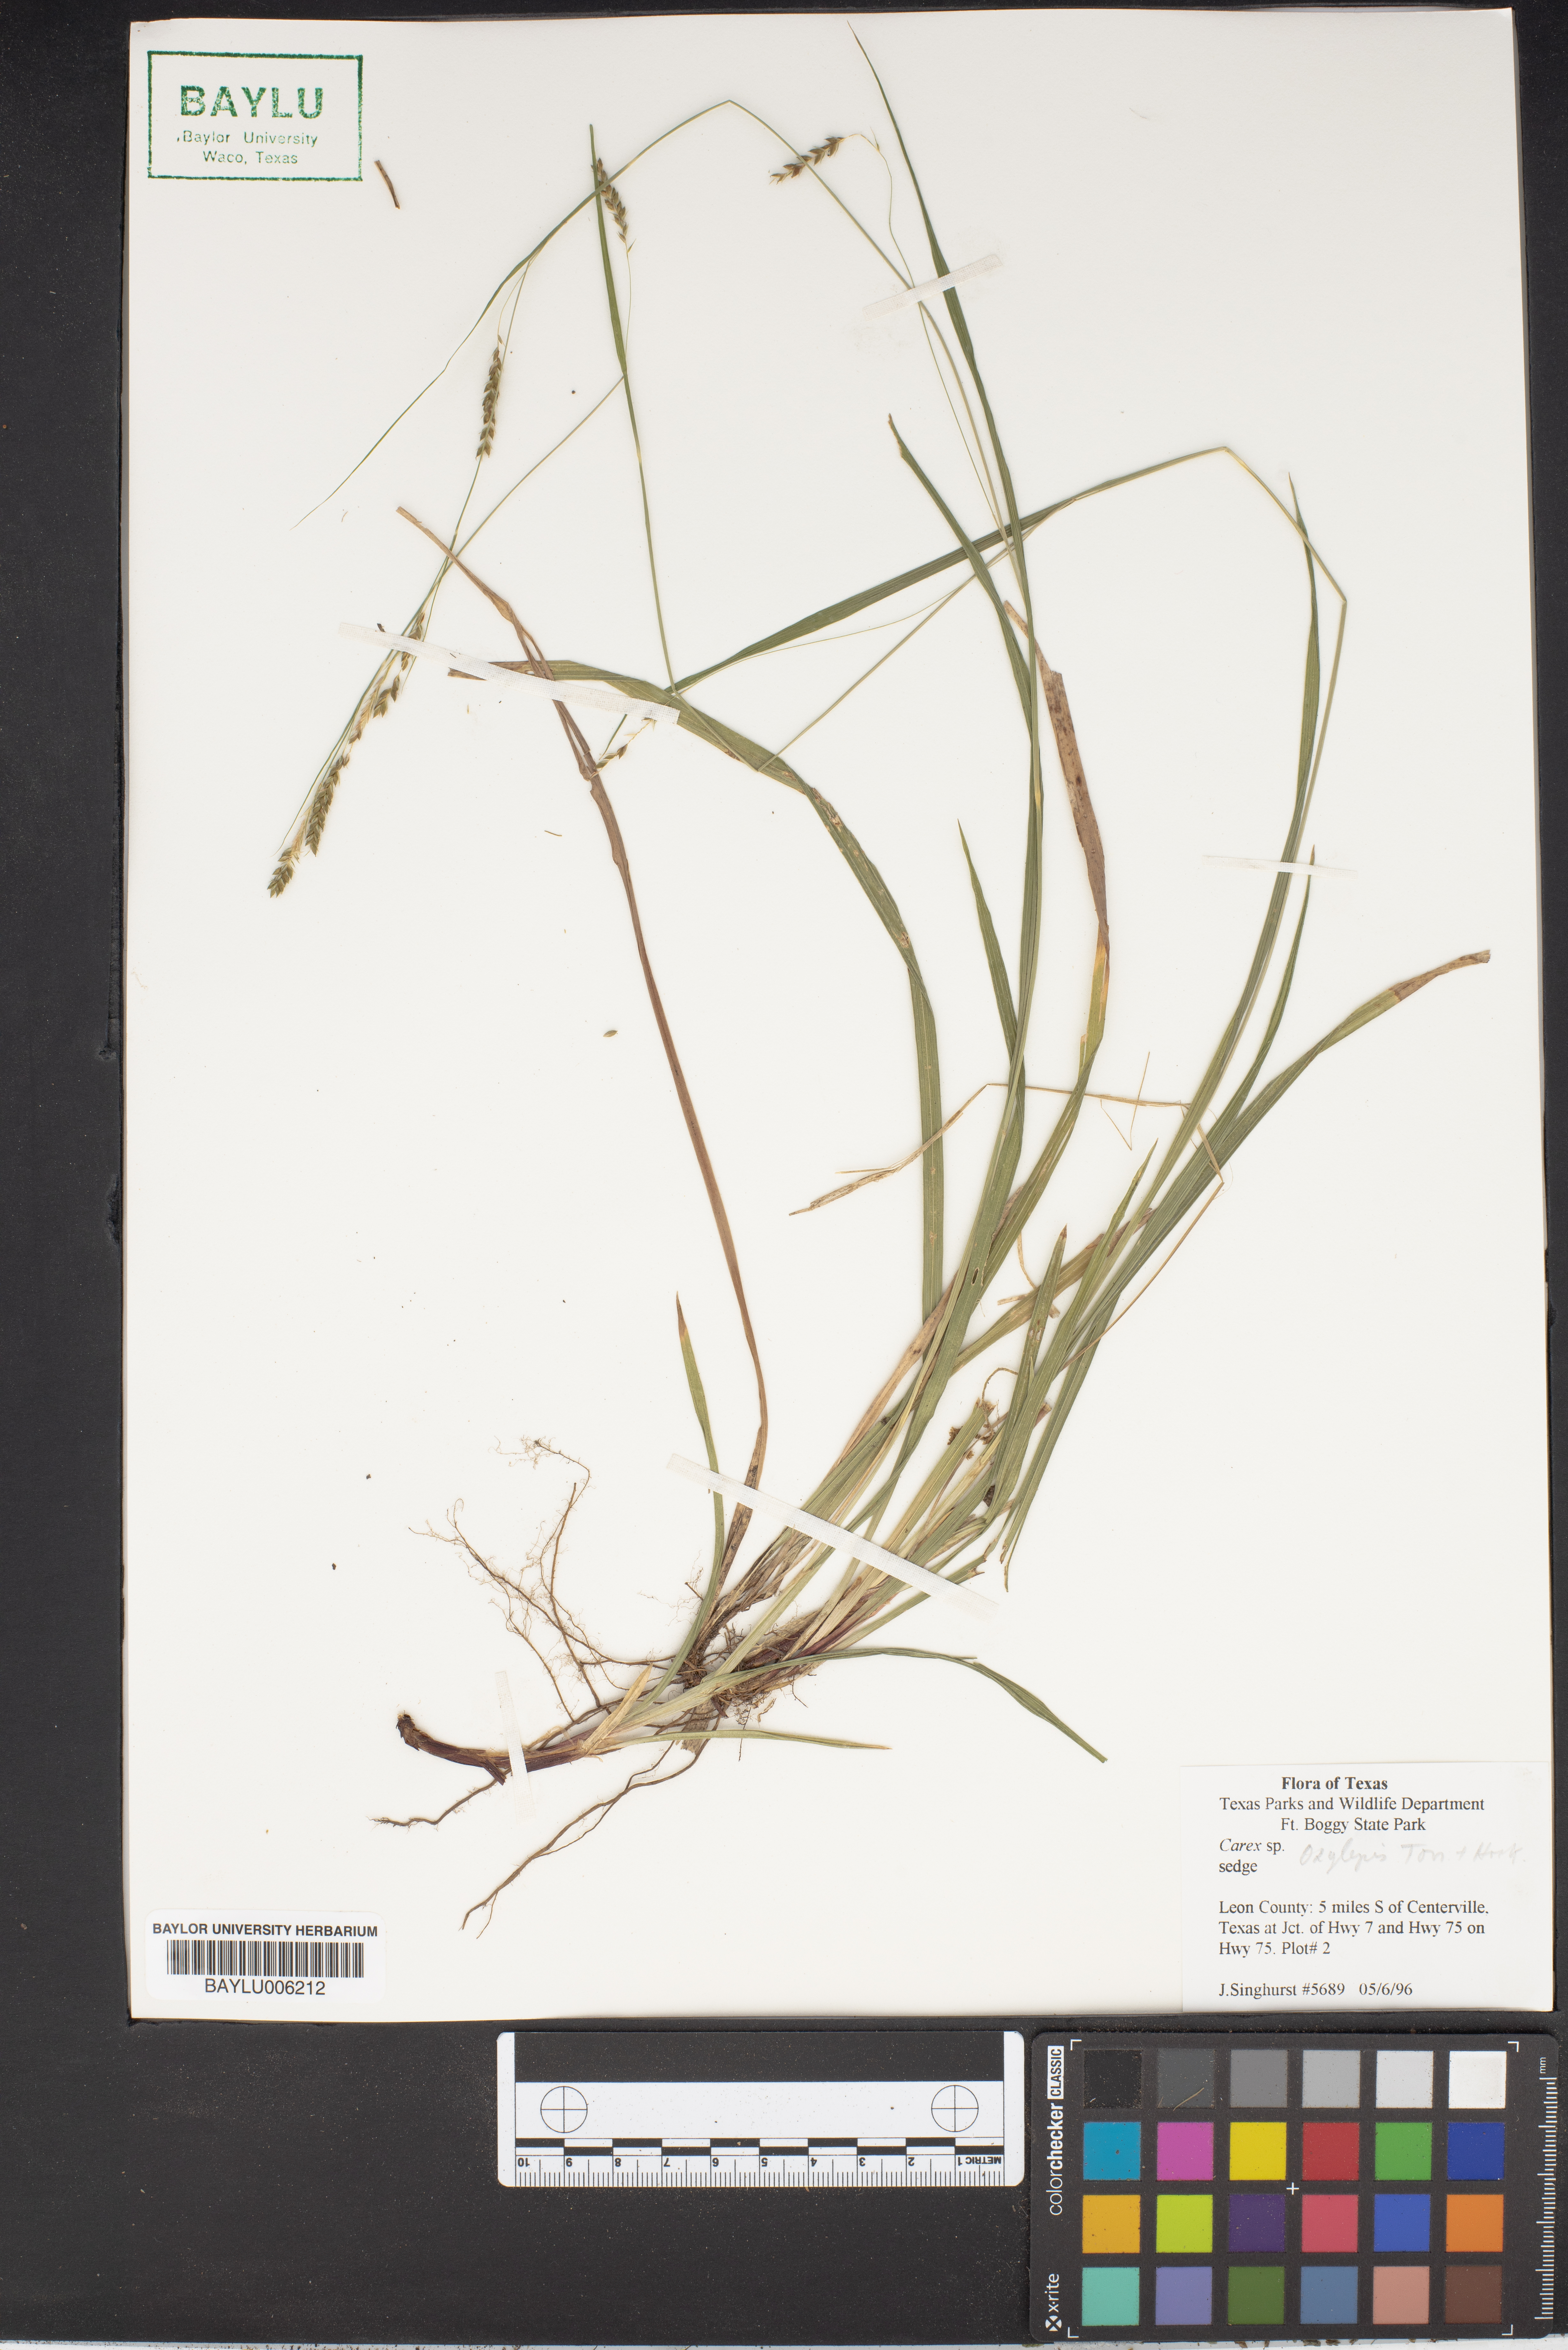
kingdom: Plantae
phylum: Tracheophyta
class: Liliopsida
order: Poales
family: Cyperaceae
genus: Carex
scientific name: Carex oxylepis
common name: Sharpscale sedge
